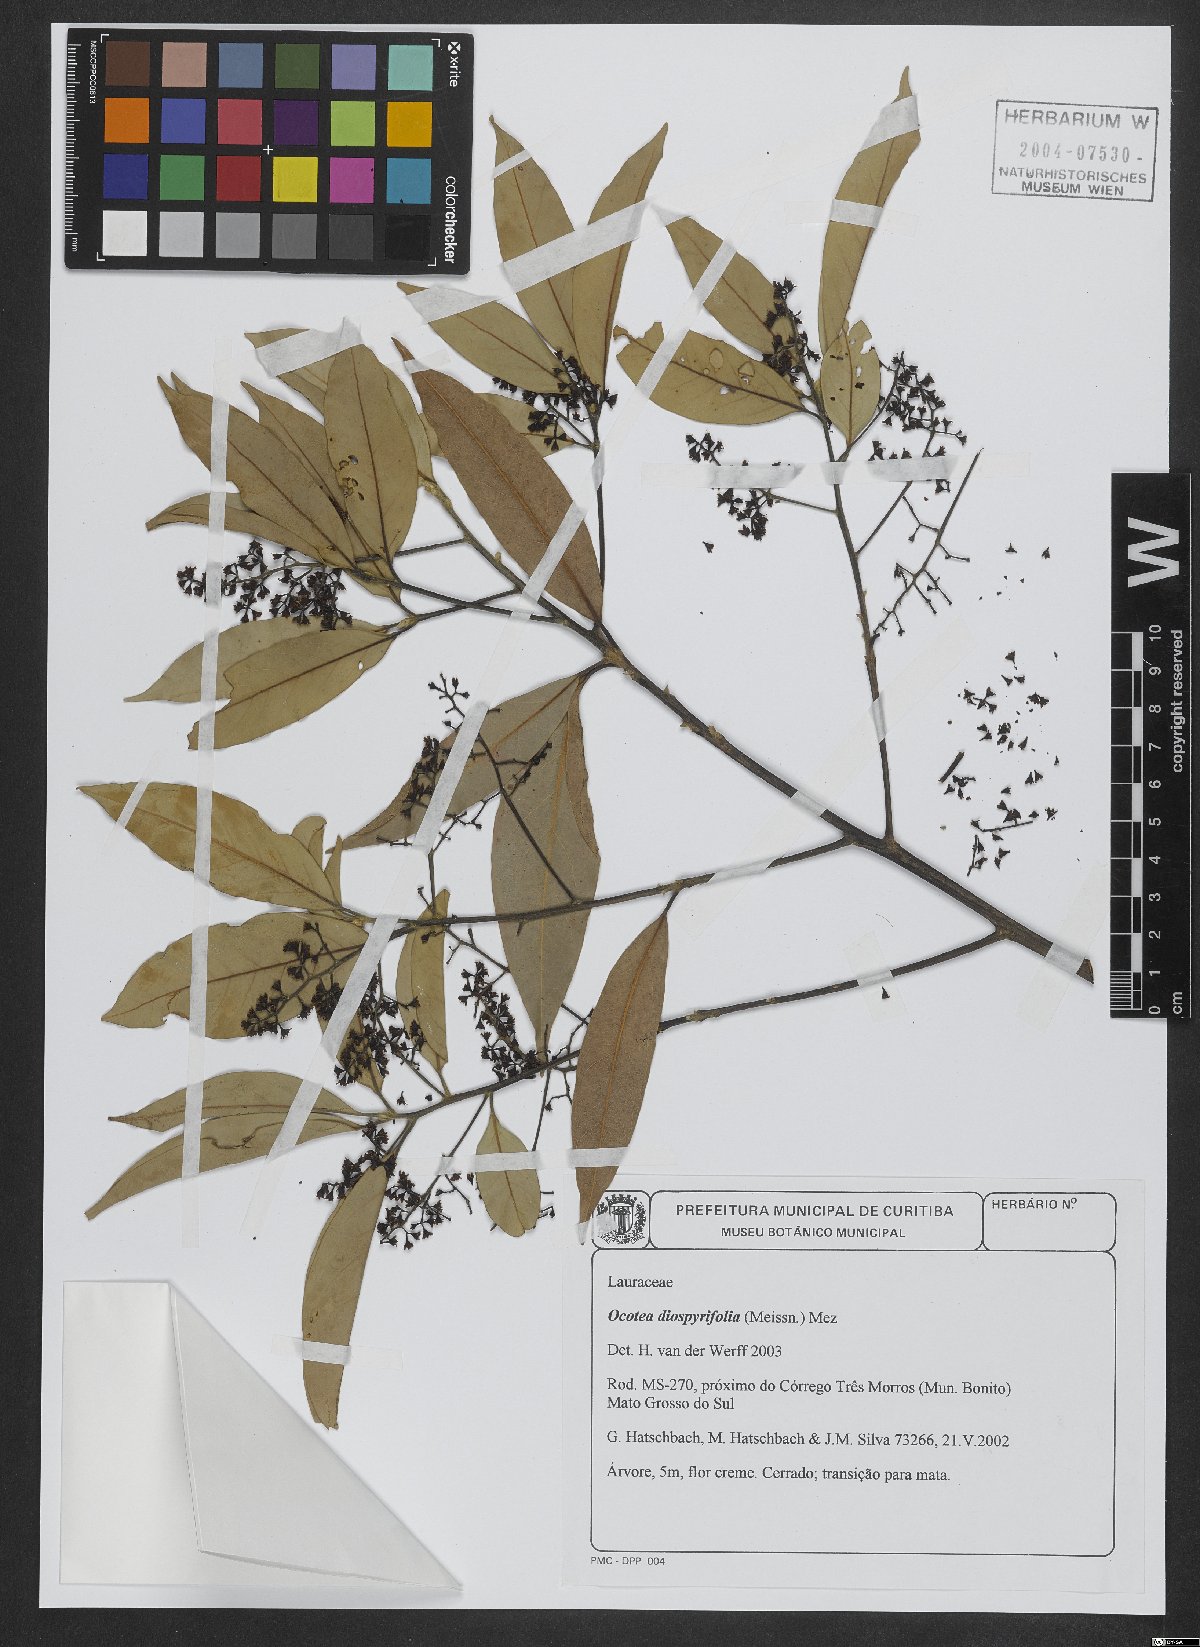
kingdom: Plantae
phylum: Tracheophyta
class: Magnoliopsida
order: Laurales
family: Lauraceae
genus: Ocotea
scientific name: Ocotea diospyrifolia
